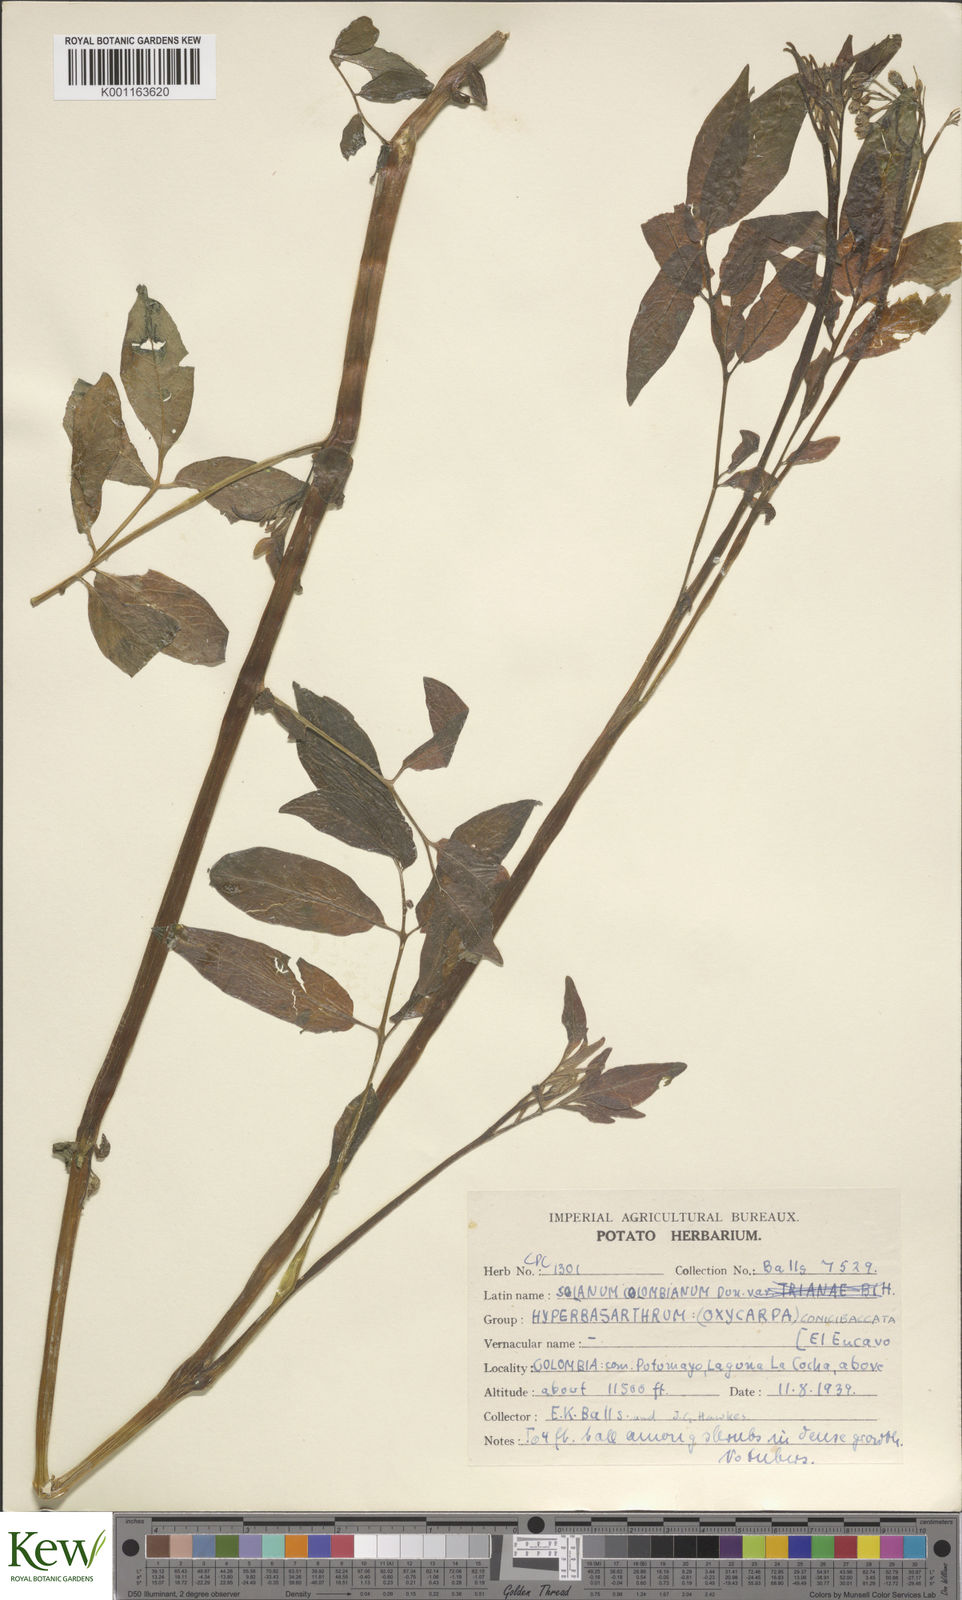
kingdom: Plantae
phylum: Tracheophyta
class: Magnoliopsida
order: Solanales
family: Solanaceae
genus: Solanum
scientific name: Solanum colombianum
